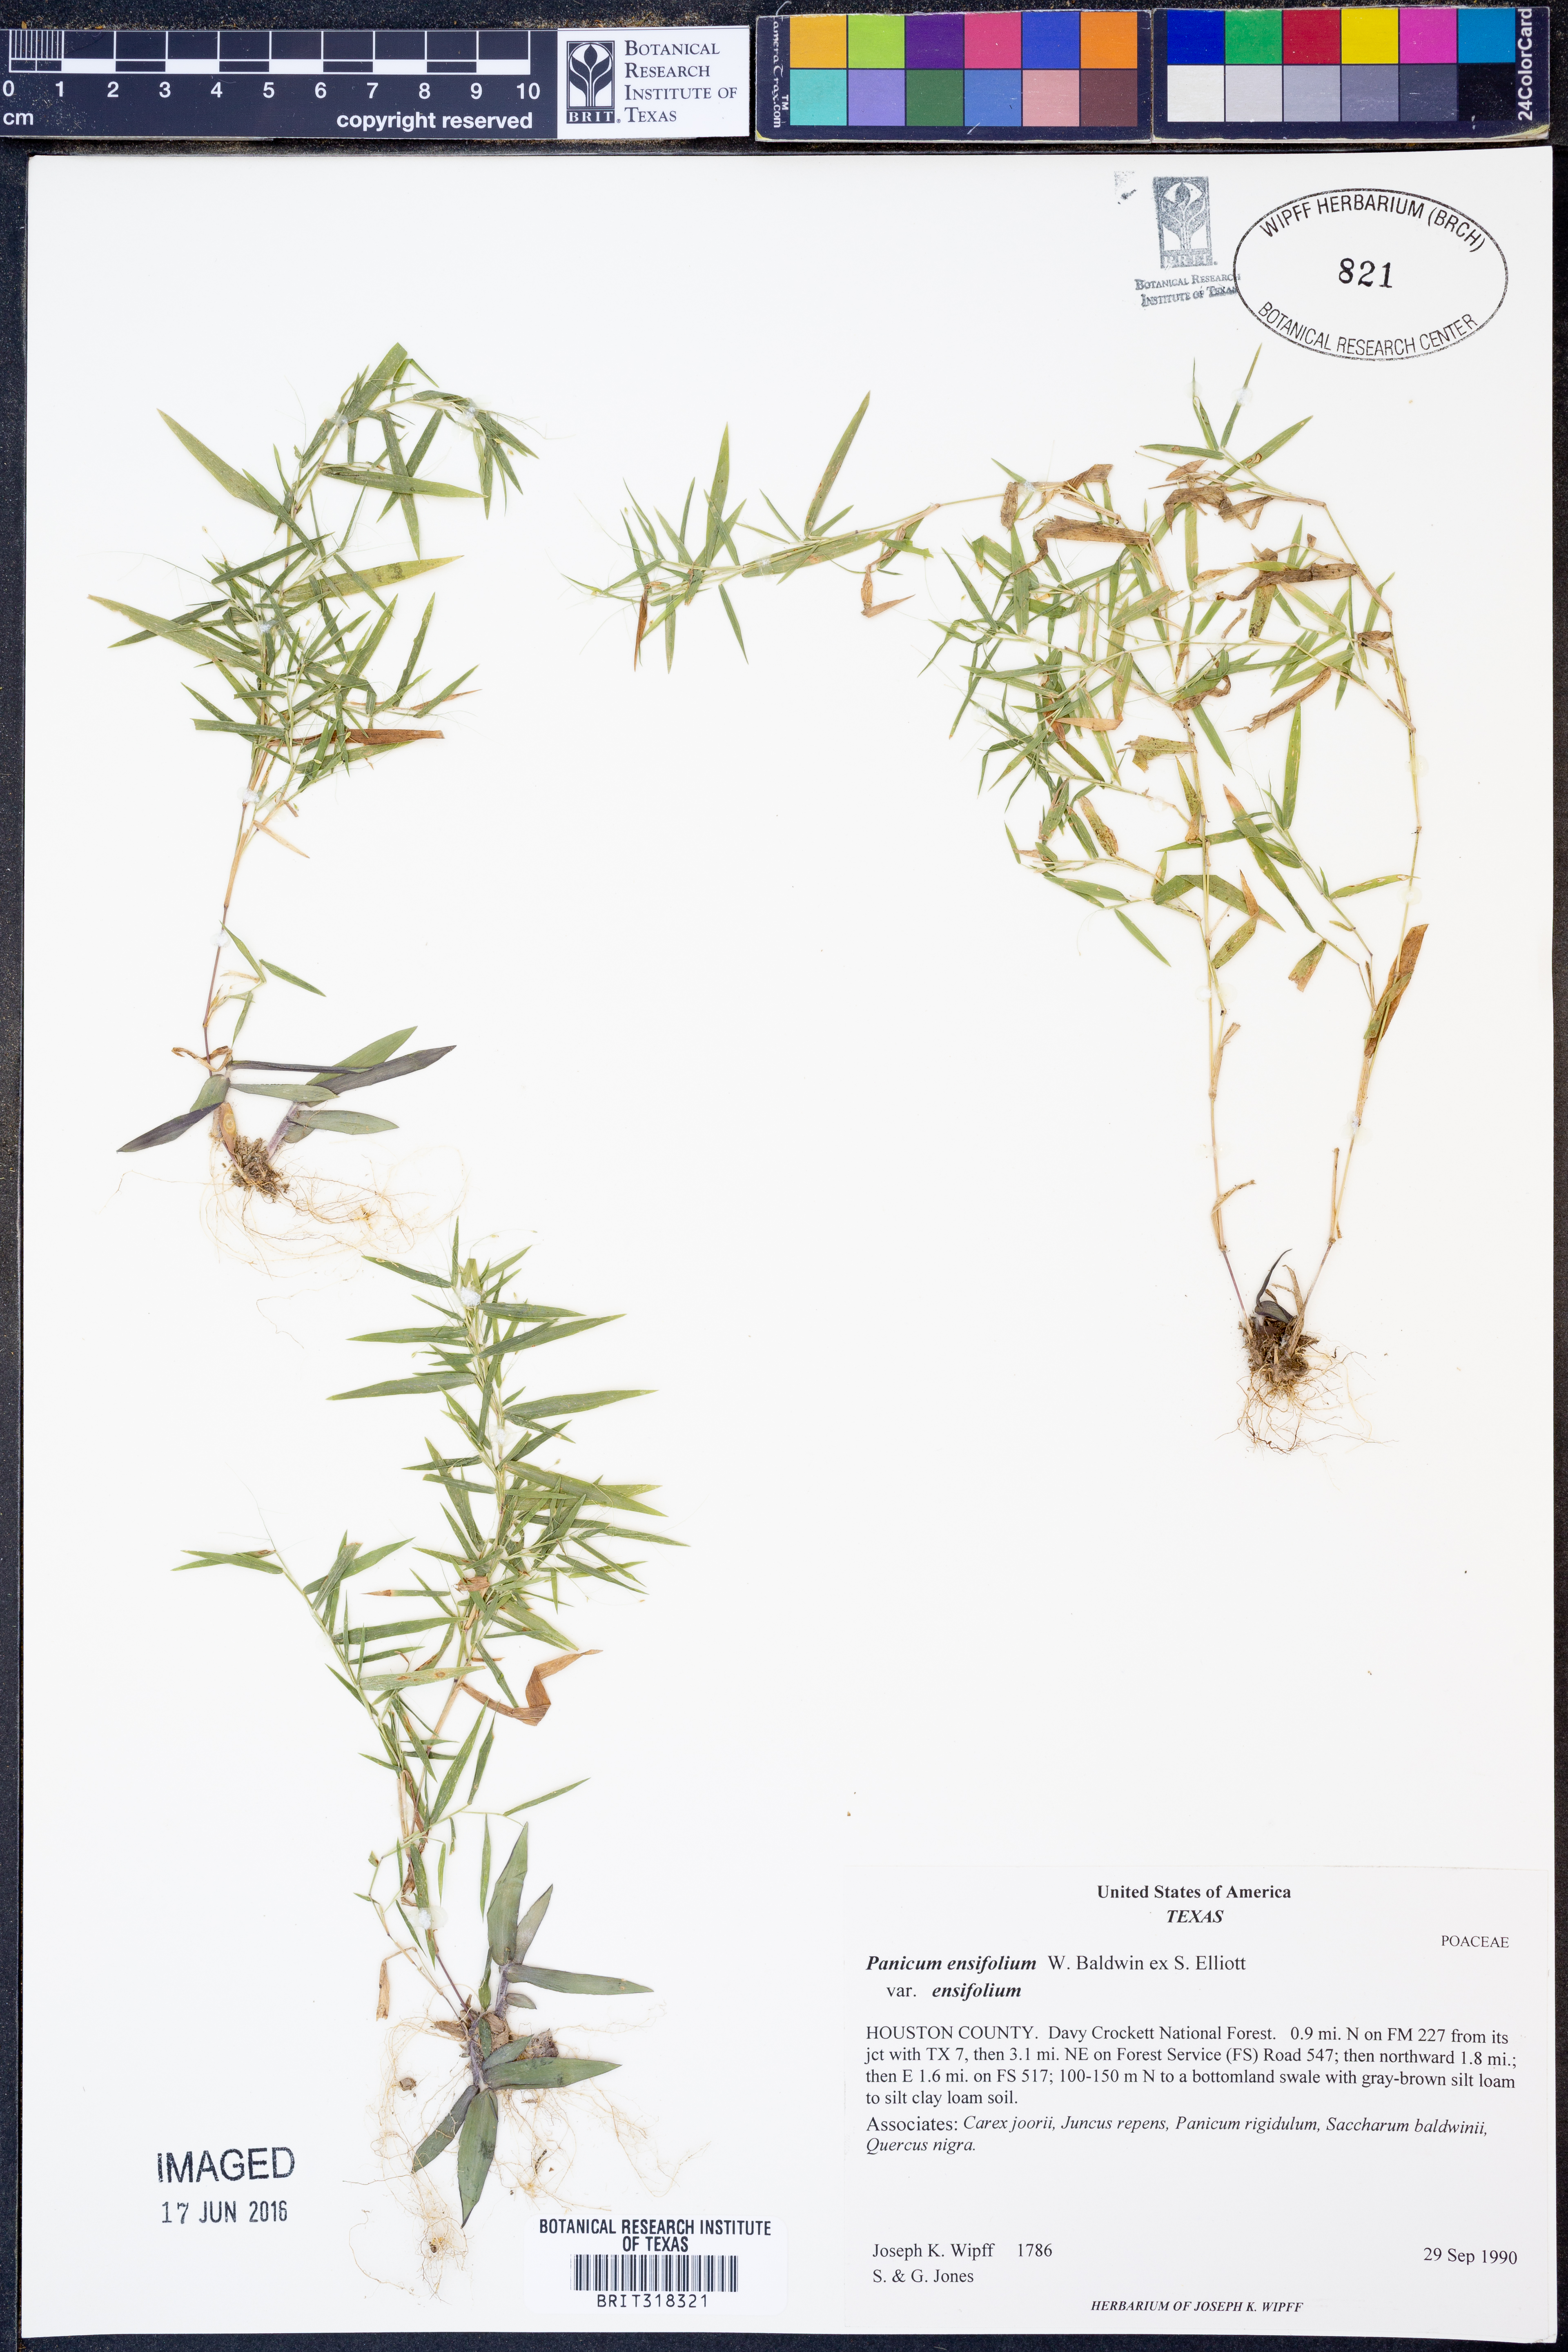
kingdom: Plantae
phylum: Tracheophyta
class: Liliopsida
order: Poales
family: Poaceae
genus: Dichanthelium
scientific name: Dichanthelium ensifolium
